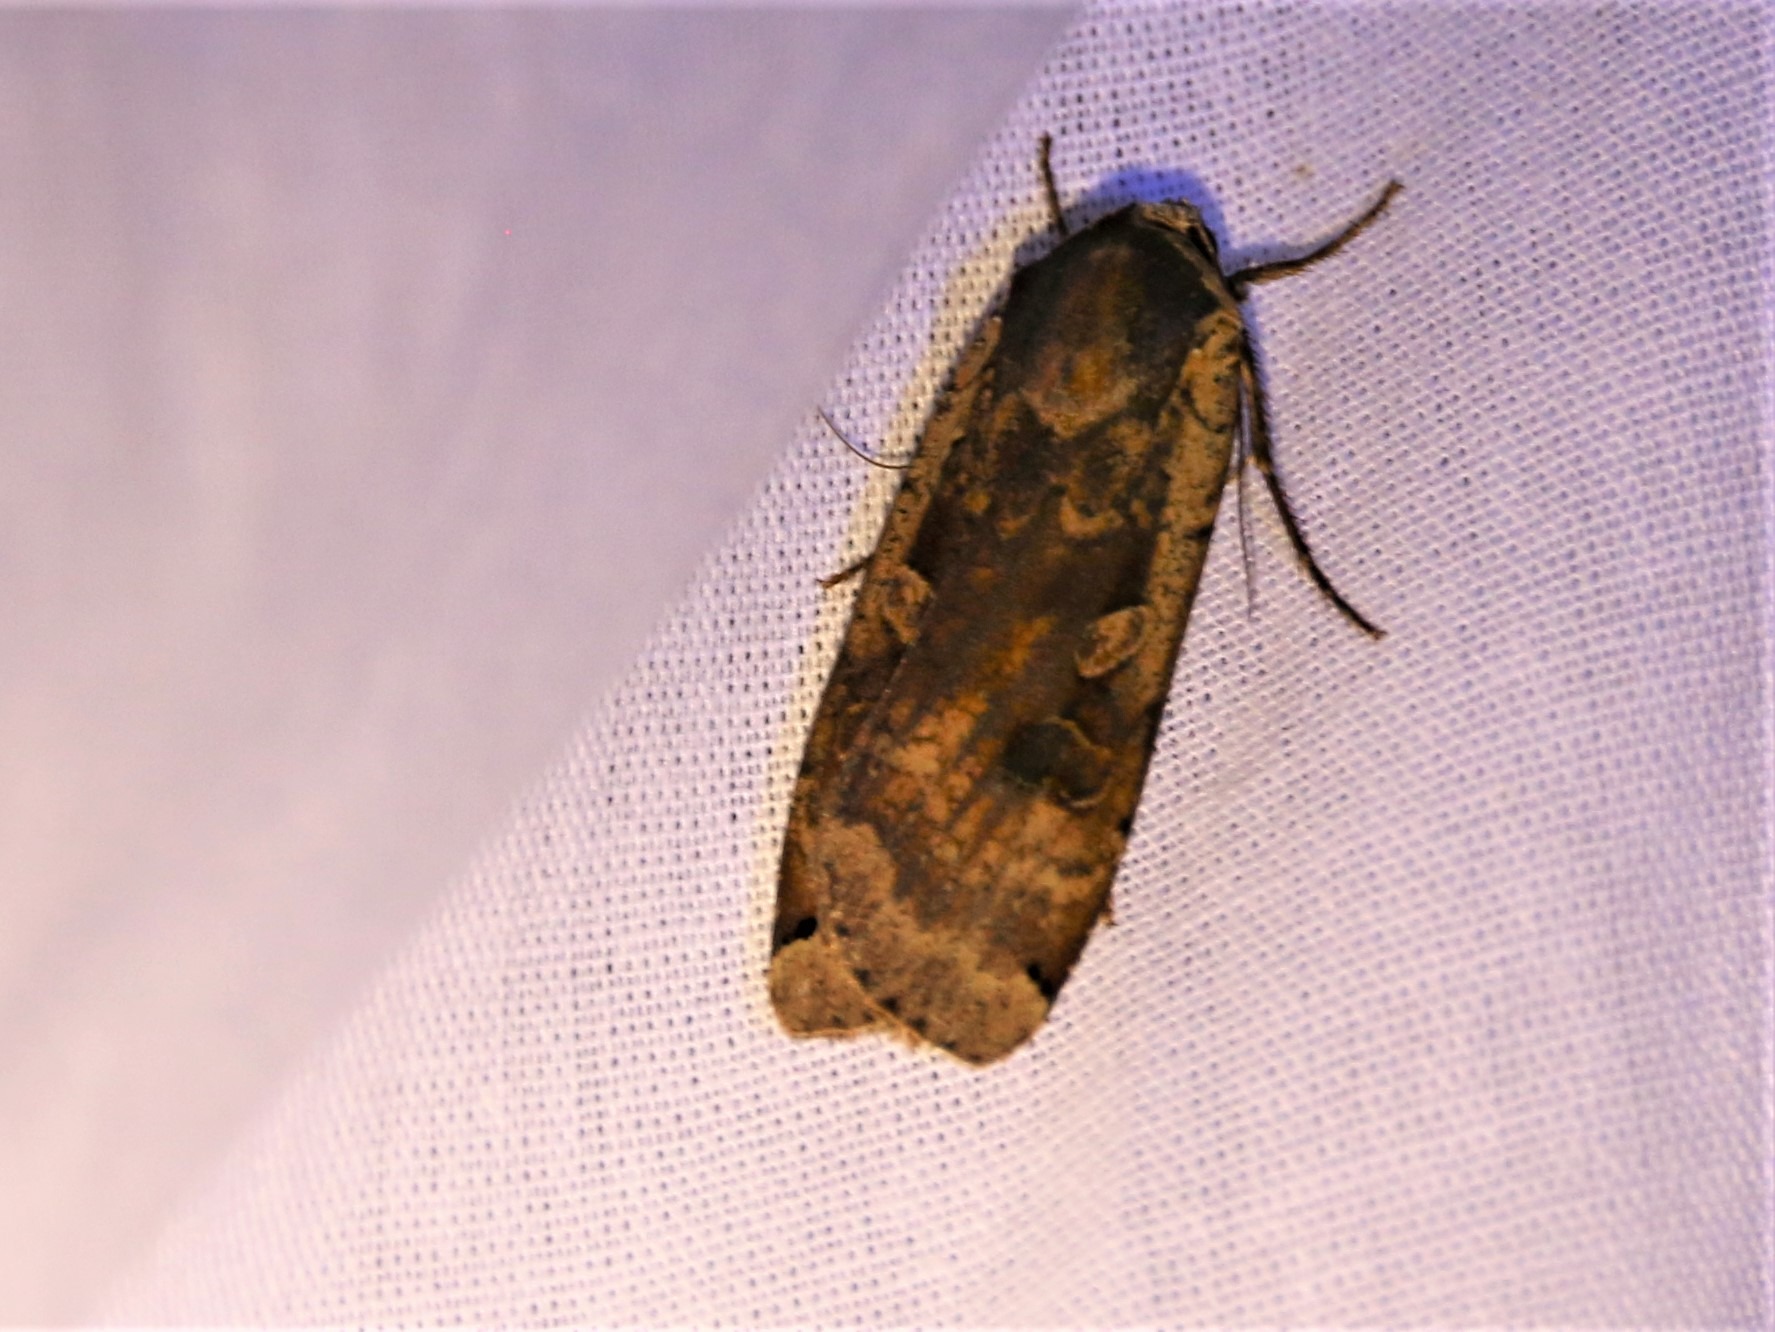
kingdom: Animalia
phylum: Arthropoda
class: Insecta
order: Lepidoptera
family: Noctuidae
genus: Noctua
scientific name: Noctua pronuba
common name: Stor smutugle
